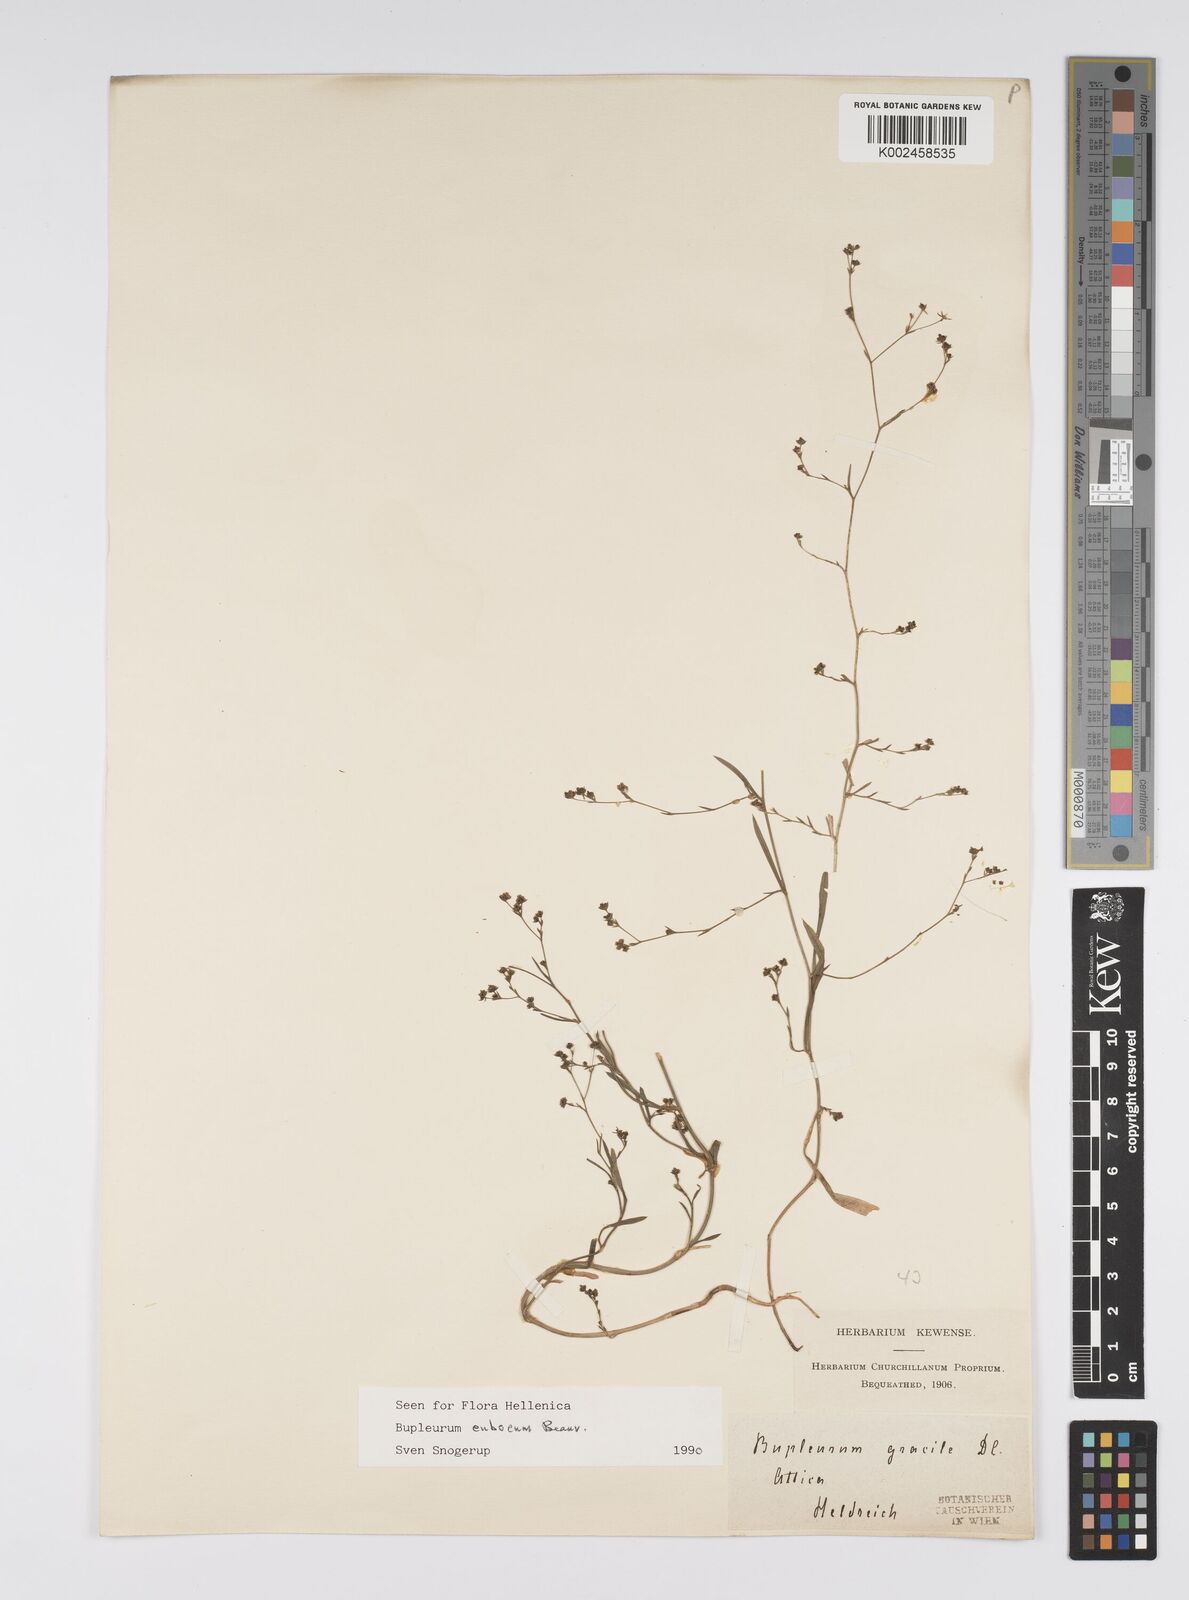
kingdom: Plantae
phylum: Tracheophyta
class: Magnoliopsida
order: Apiales
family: Apiaceae
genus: Bupleurum
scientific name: Bupleurum tenuissimum
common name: Slender hare's-ear
